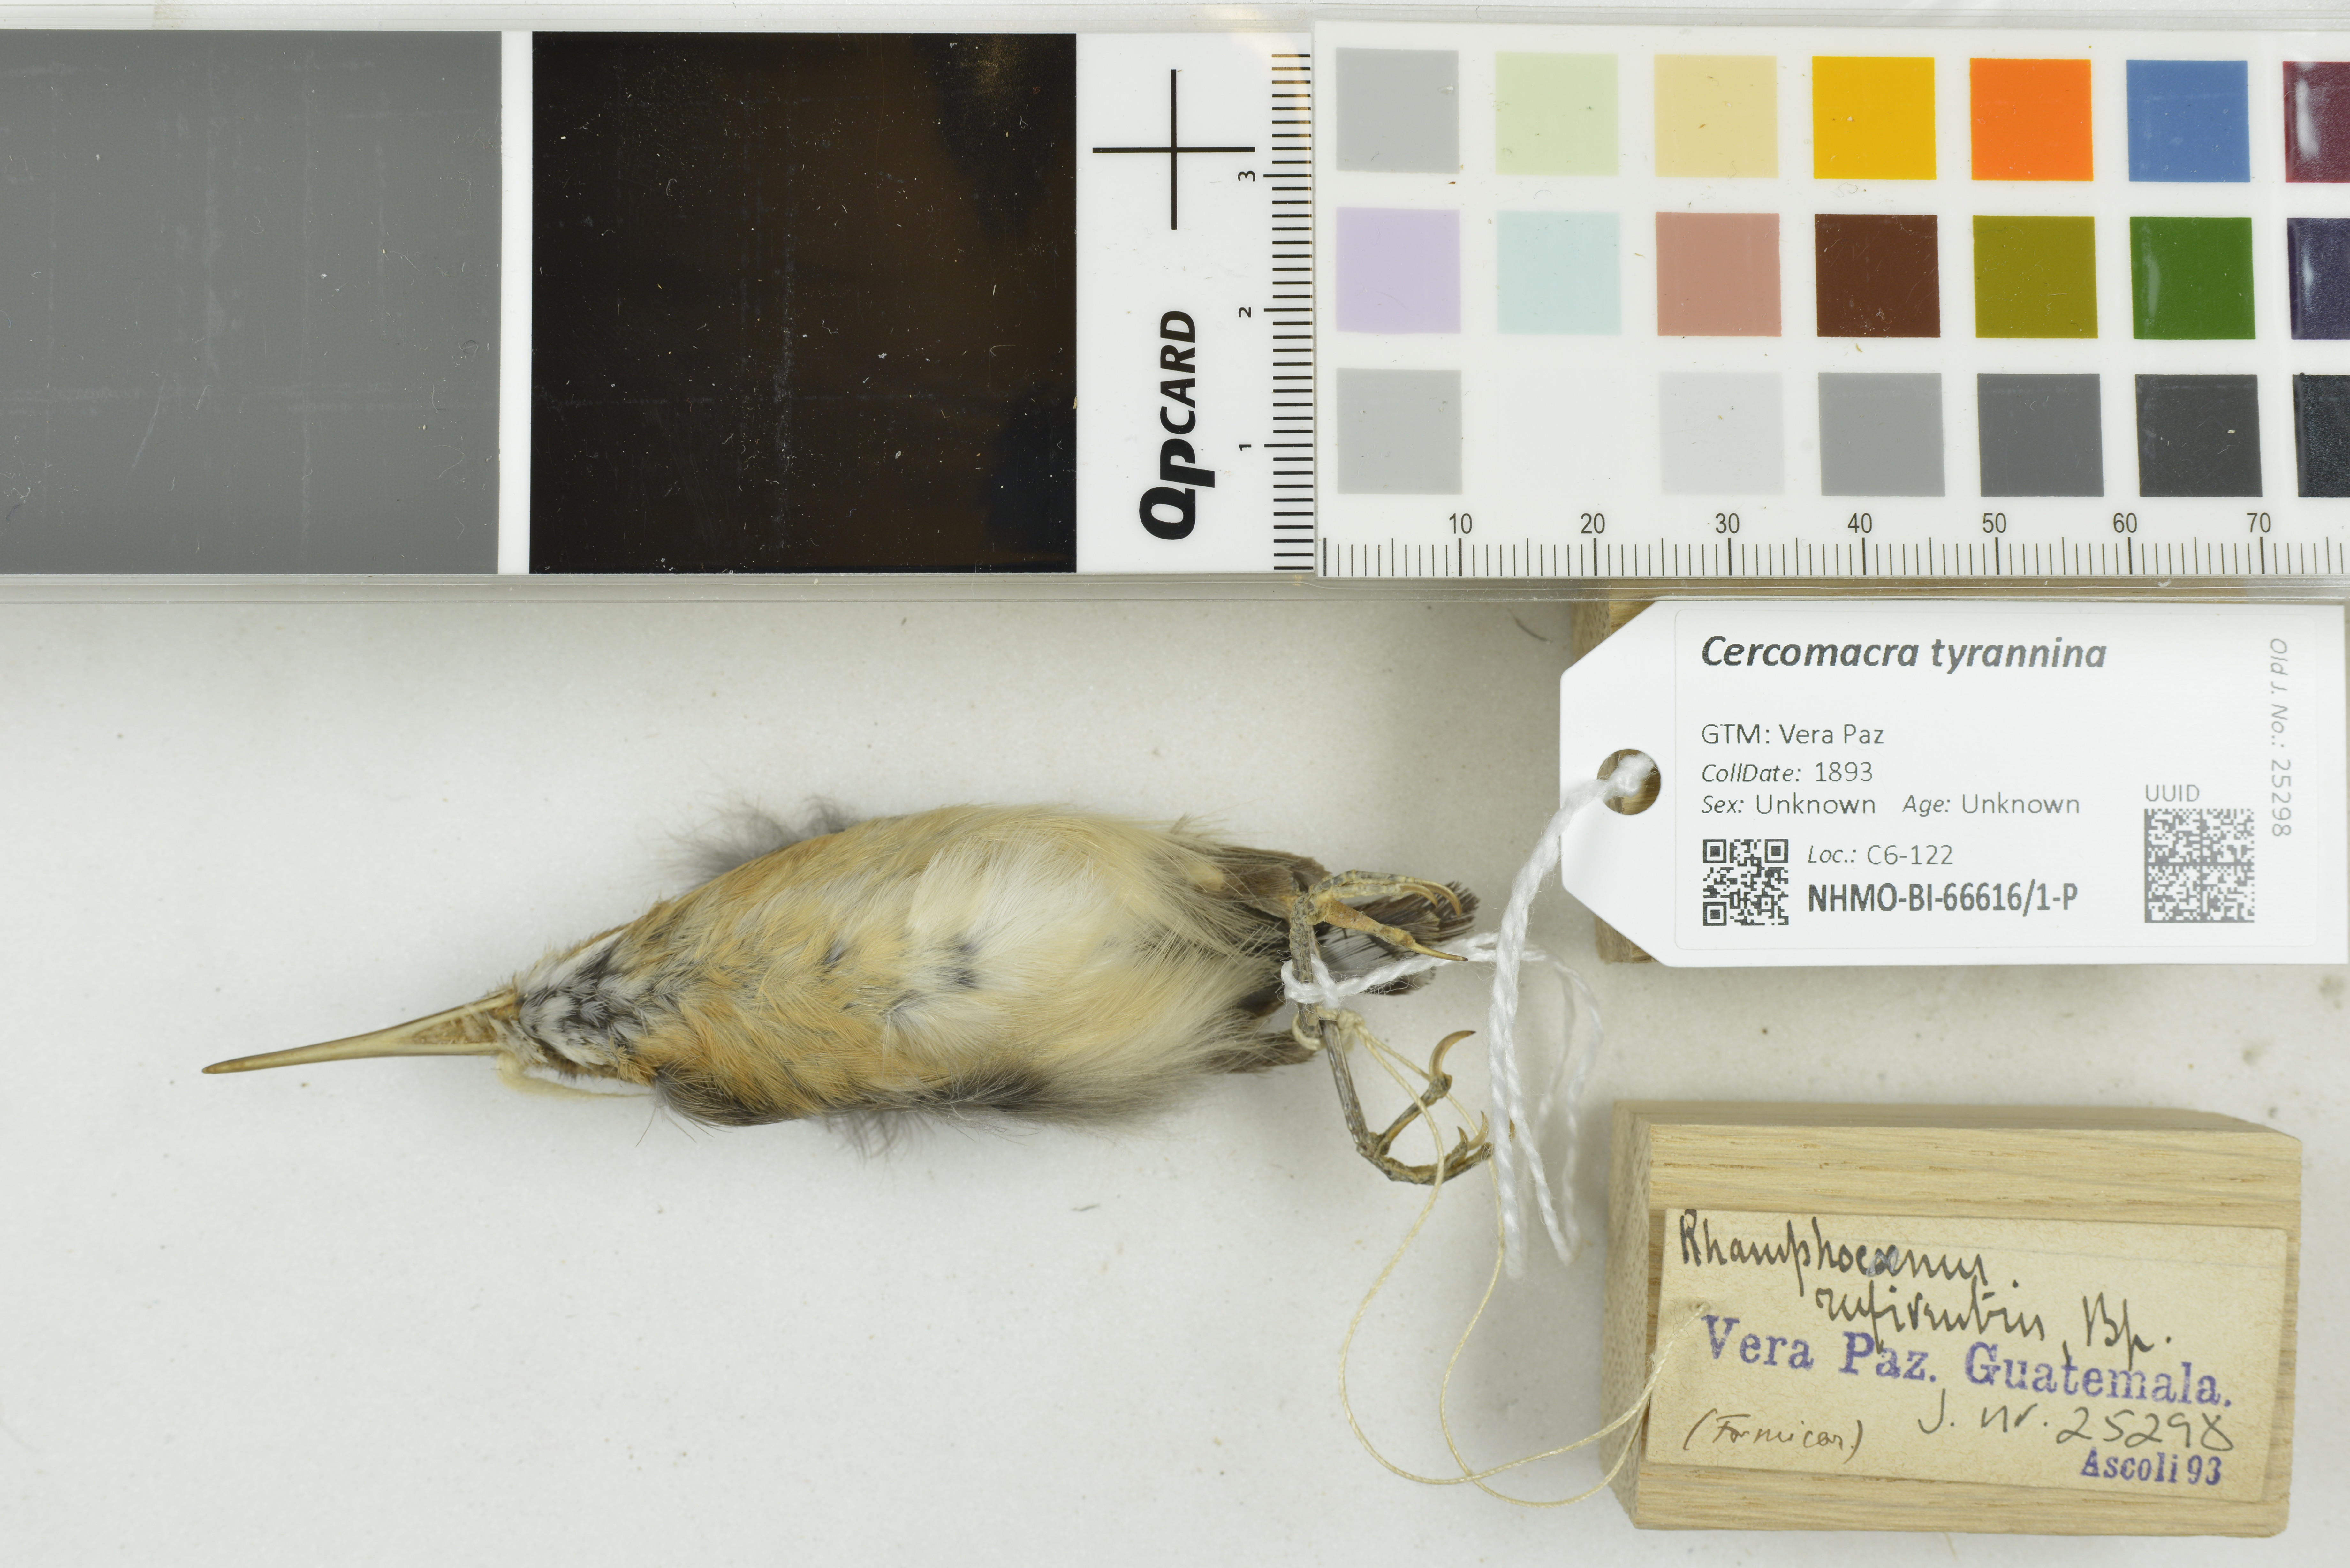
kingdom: Animalia
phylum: Chordata
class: Aves
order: Passeriformes
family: Thamnophilidae
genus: Cercomacra
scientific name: Cercomacra tyrannina
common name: Dusky antbird
